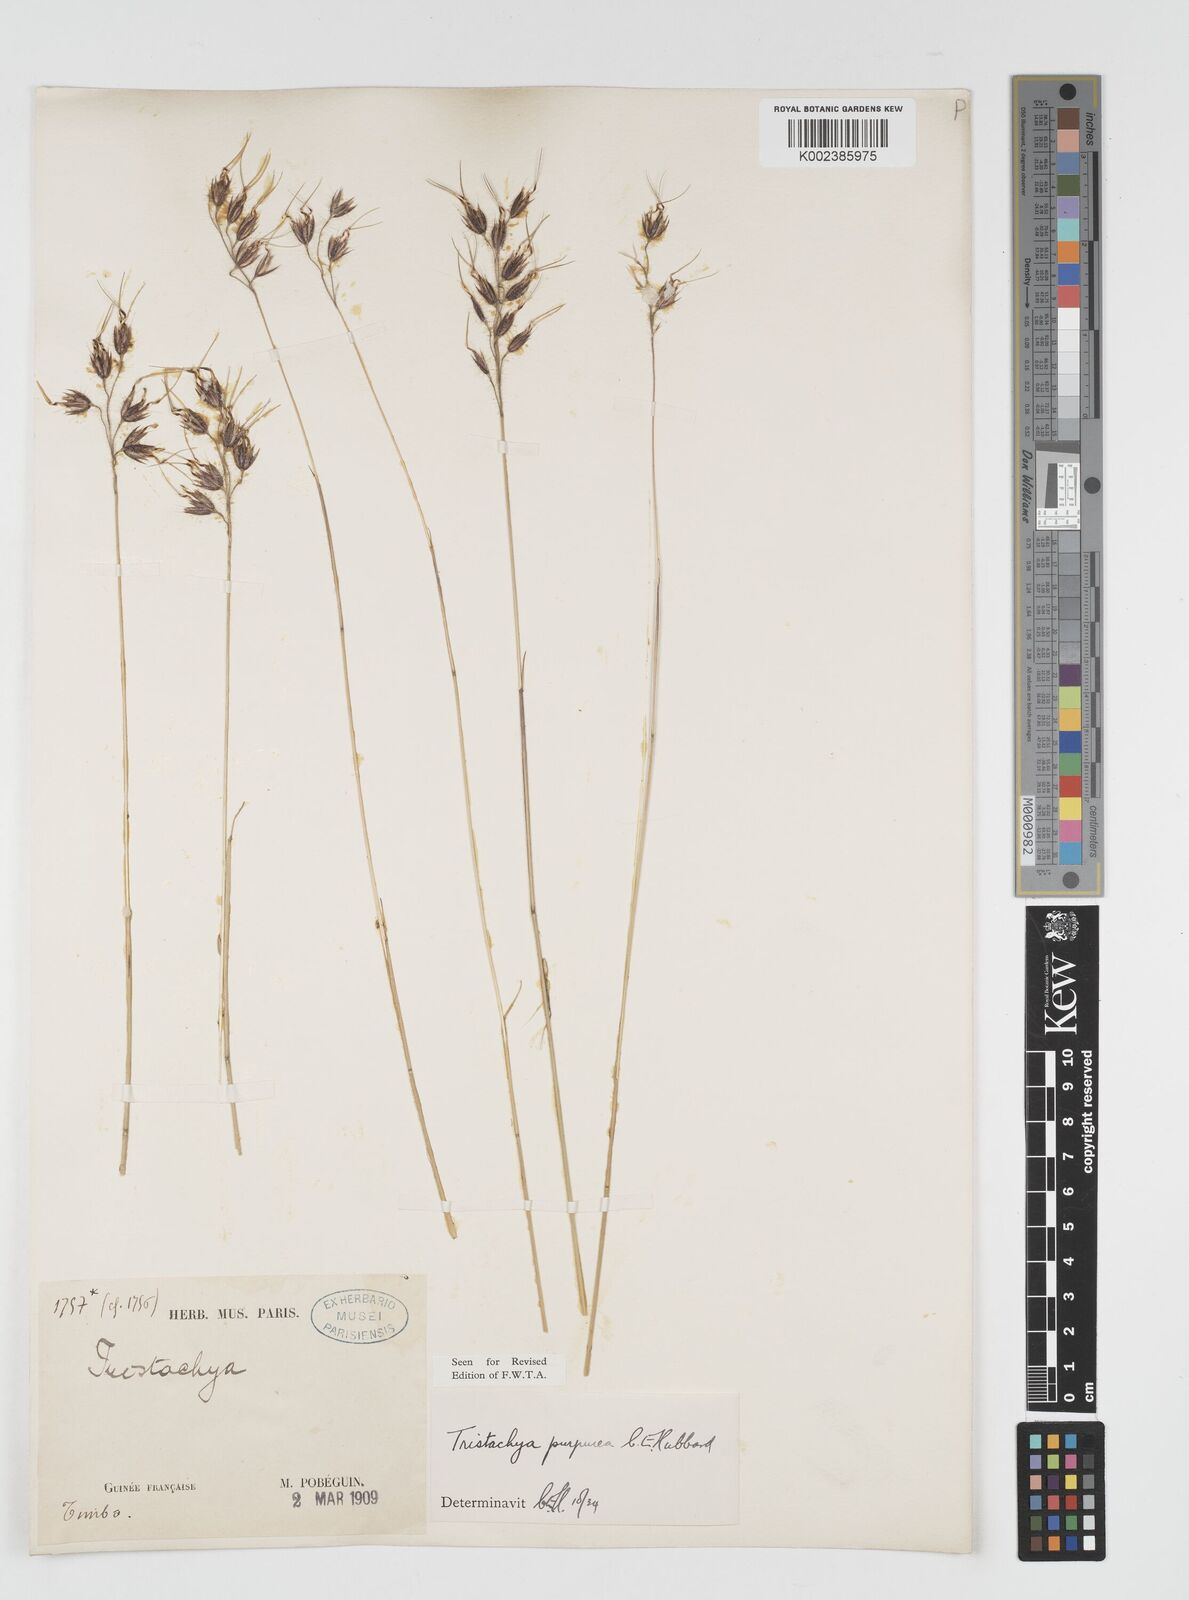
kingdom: Plantae
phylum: Tracheophyta
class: Liliopsida
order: Poales
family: Poaceae
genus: Dilophotriche
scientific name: Dilophotriche tristachyoides
